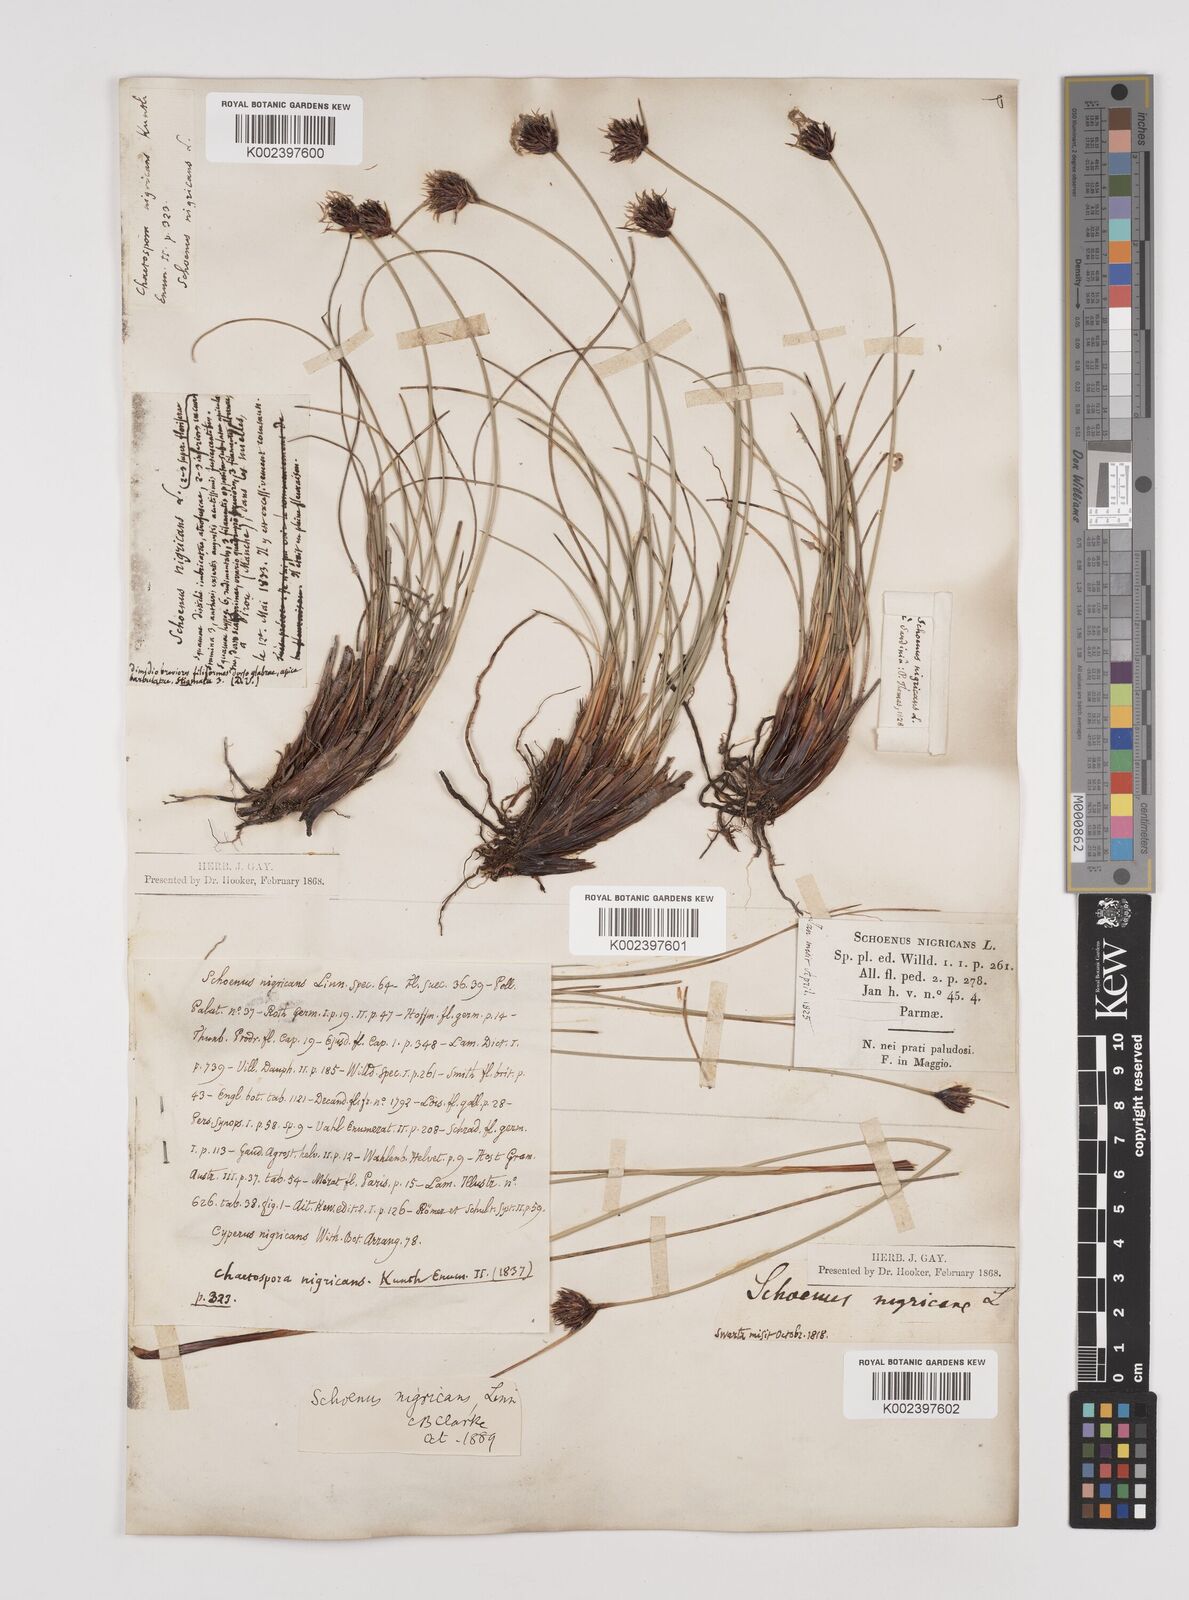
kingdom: Plantae
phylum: Tracheophyta
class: Liliopsida
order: Poales
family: Cyperaceae
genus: Schoenus
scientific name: Schoenus nigricans
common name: Black bog-rush
